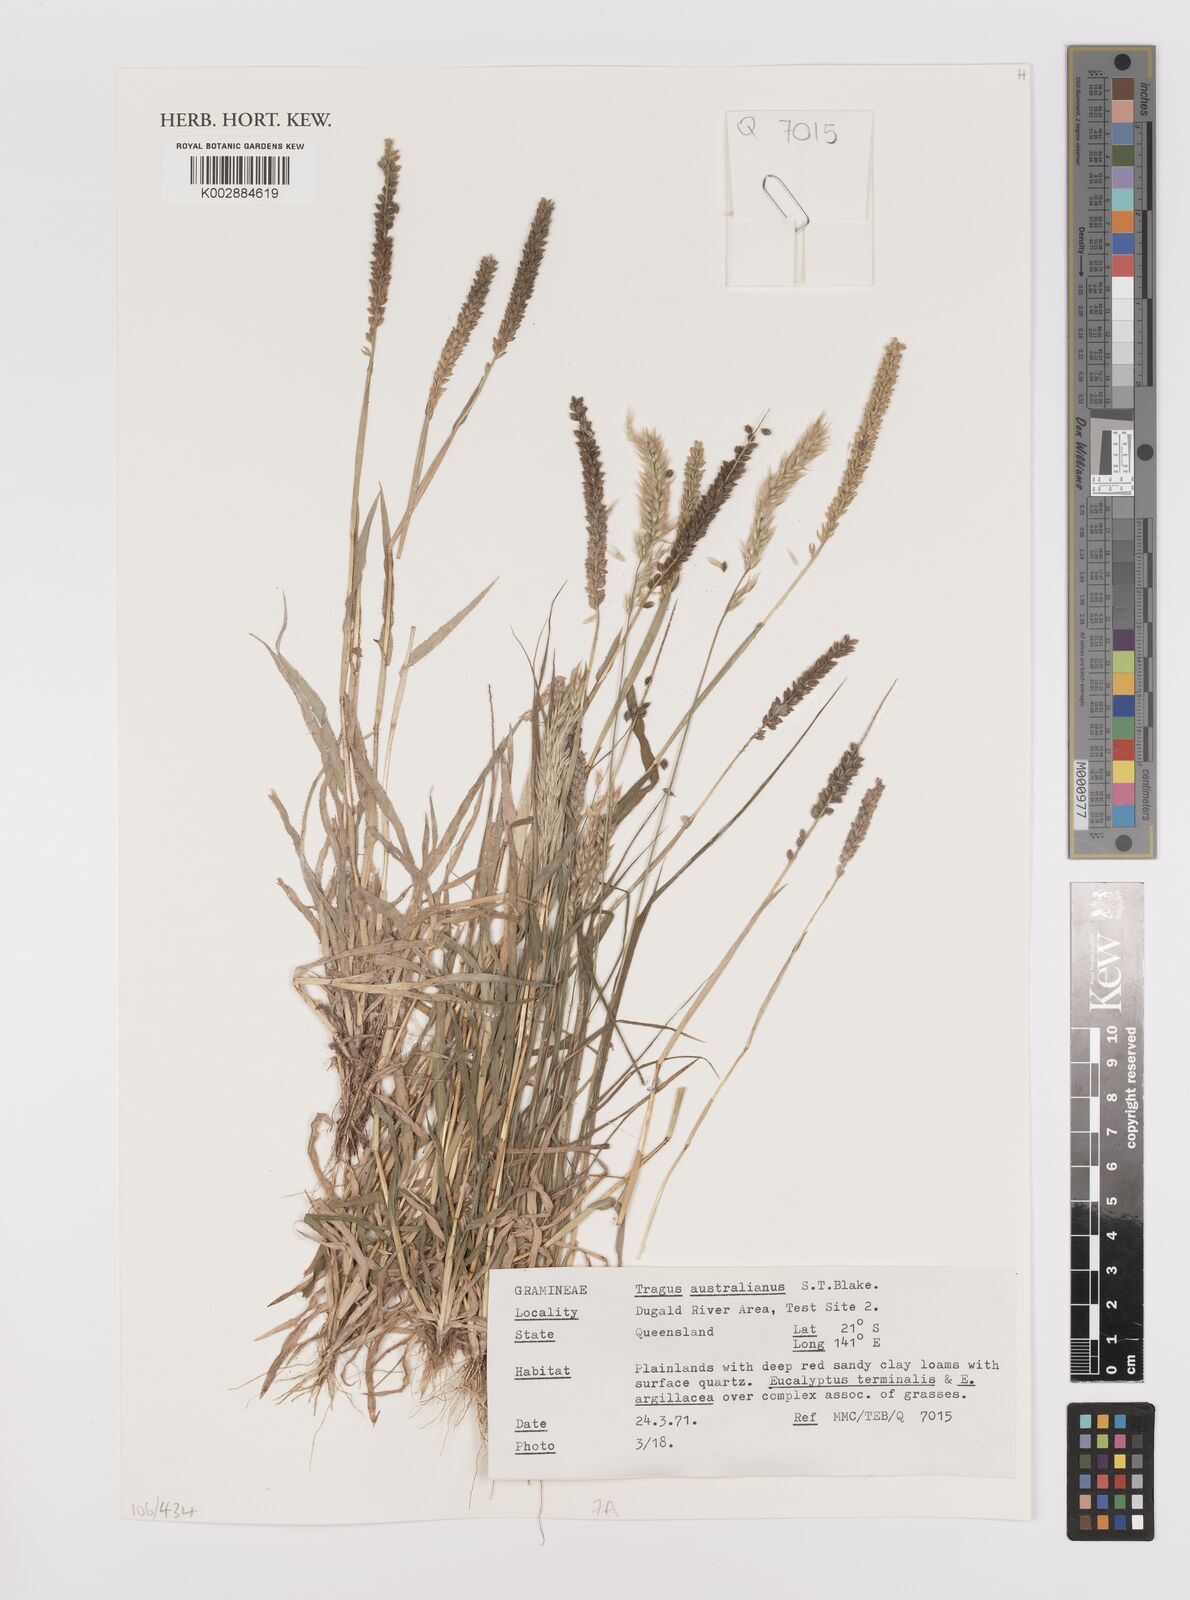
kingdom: Plantae
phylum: Tracheophyta
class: Liliopsida
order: Poales
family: Poaceae
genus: Tragus
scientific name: Tragus australianus
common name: Australian bur-grass
